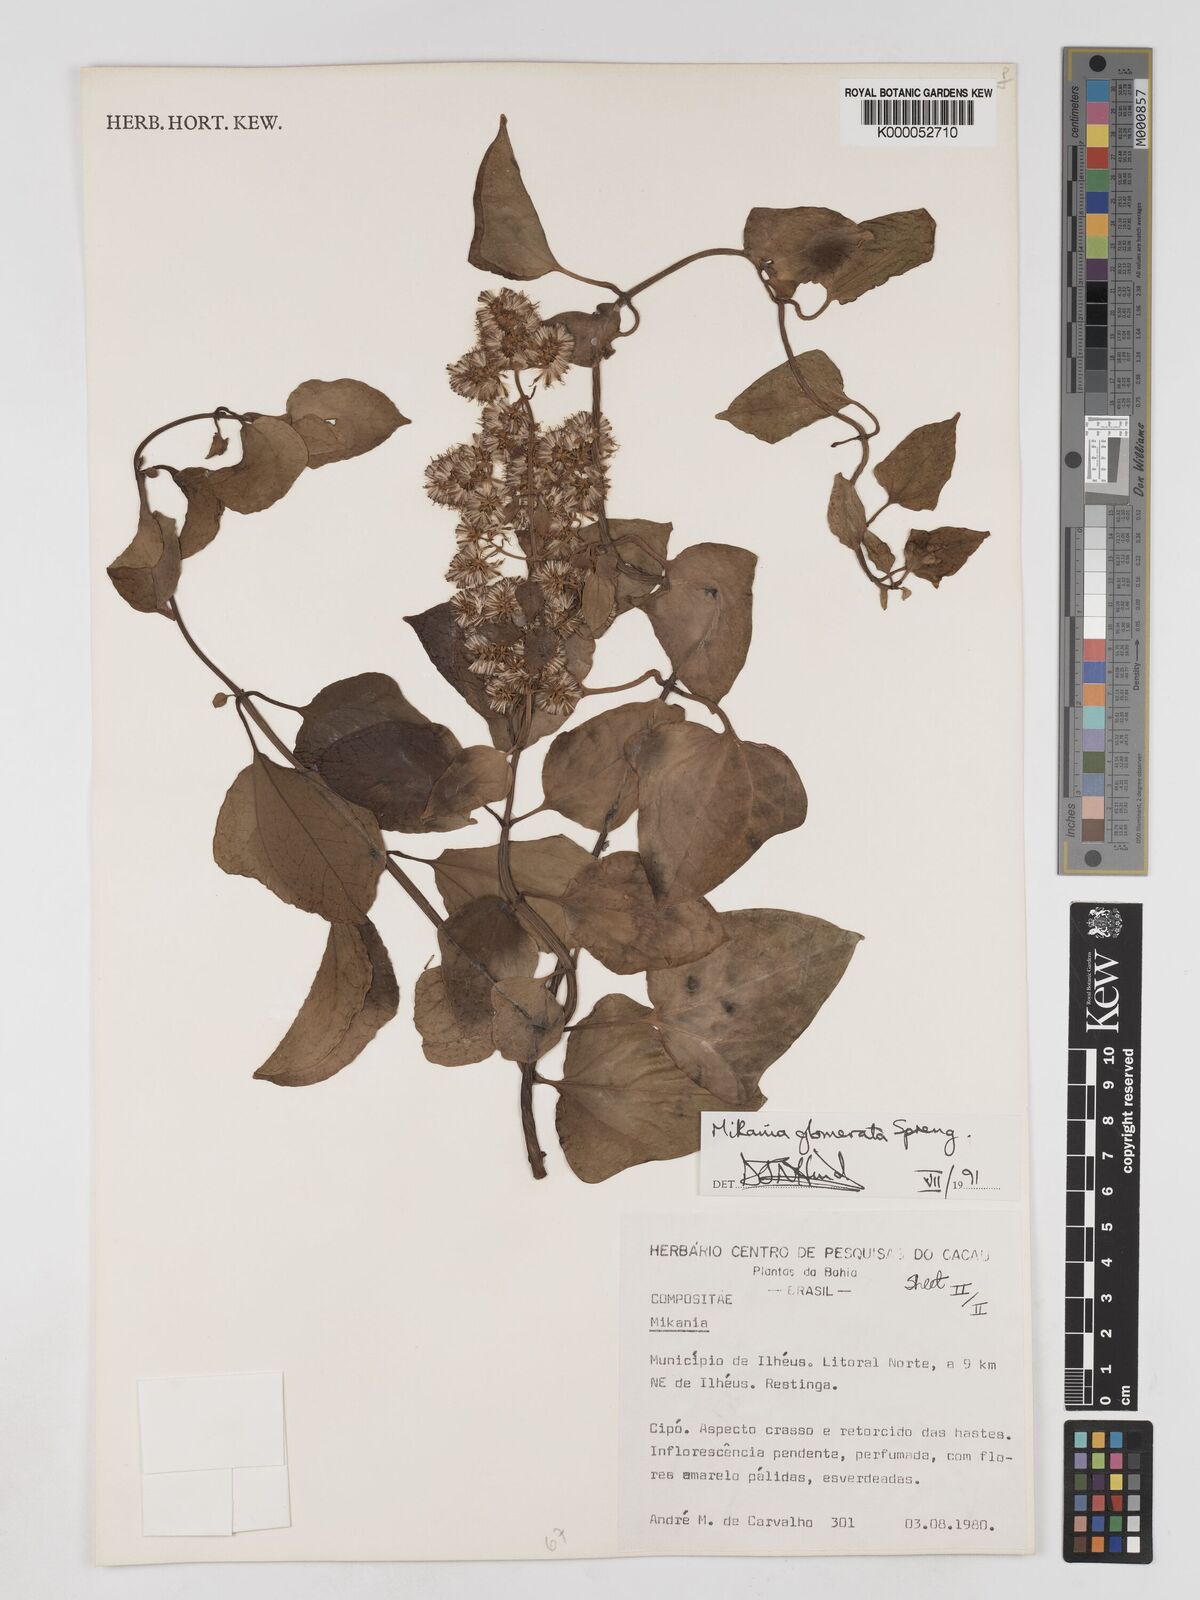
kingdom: Plantae
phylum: Tracheophyta
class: Magnoliopsida
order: Asterales
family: Asteraceae
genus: Mikania
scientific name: Mikania glomerata
